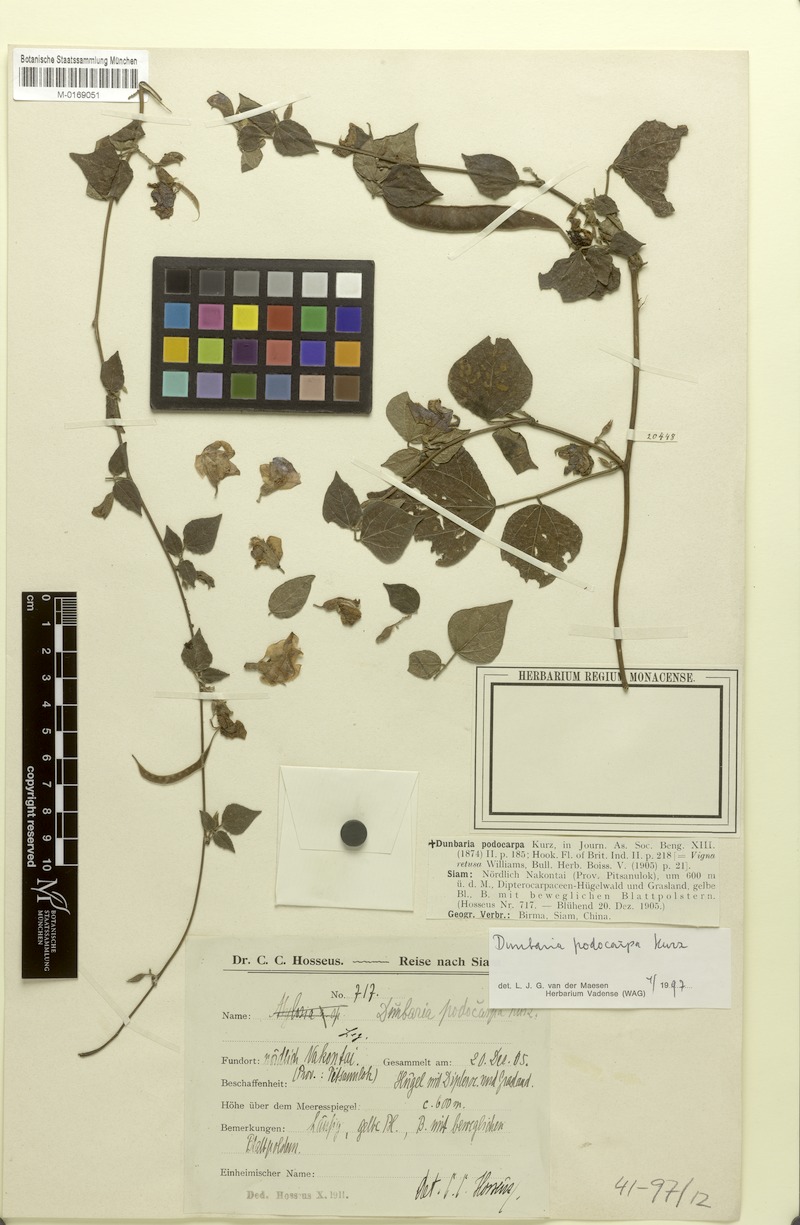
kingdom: Plantae
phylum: Tracheophyta
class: Magnoliopsida
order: Fabales
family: Fabaceae
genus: Dunbaria
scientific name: Dunbaria podocarpa
